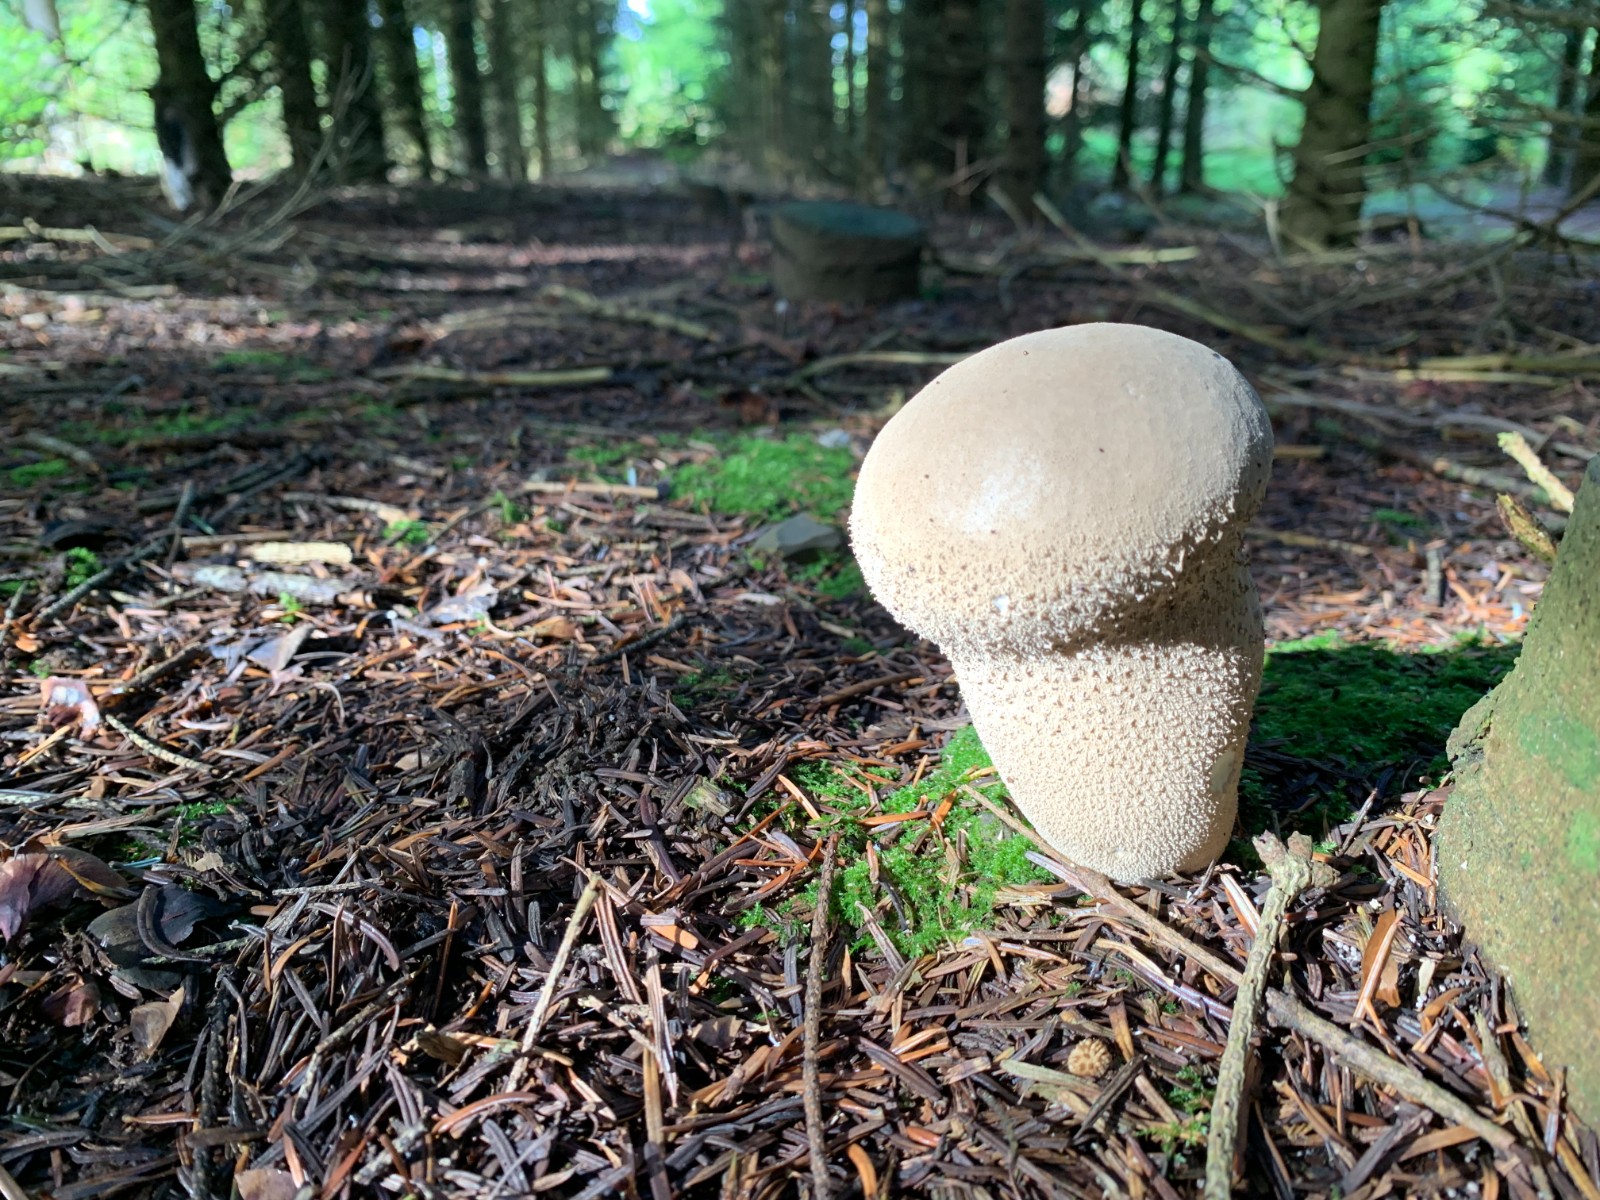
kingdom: Fungi
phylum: Basidiomycota
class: Agaricomycetes
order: Agaricales
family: Lycoperdaceae
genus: Lycoperdon
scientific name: Lycoperdon excipuliforme
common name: højstokket støvbold
